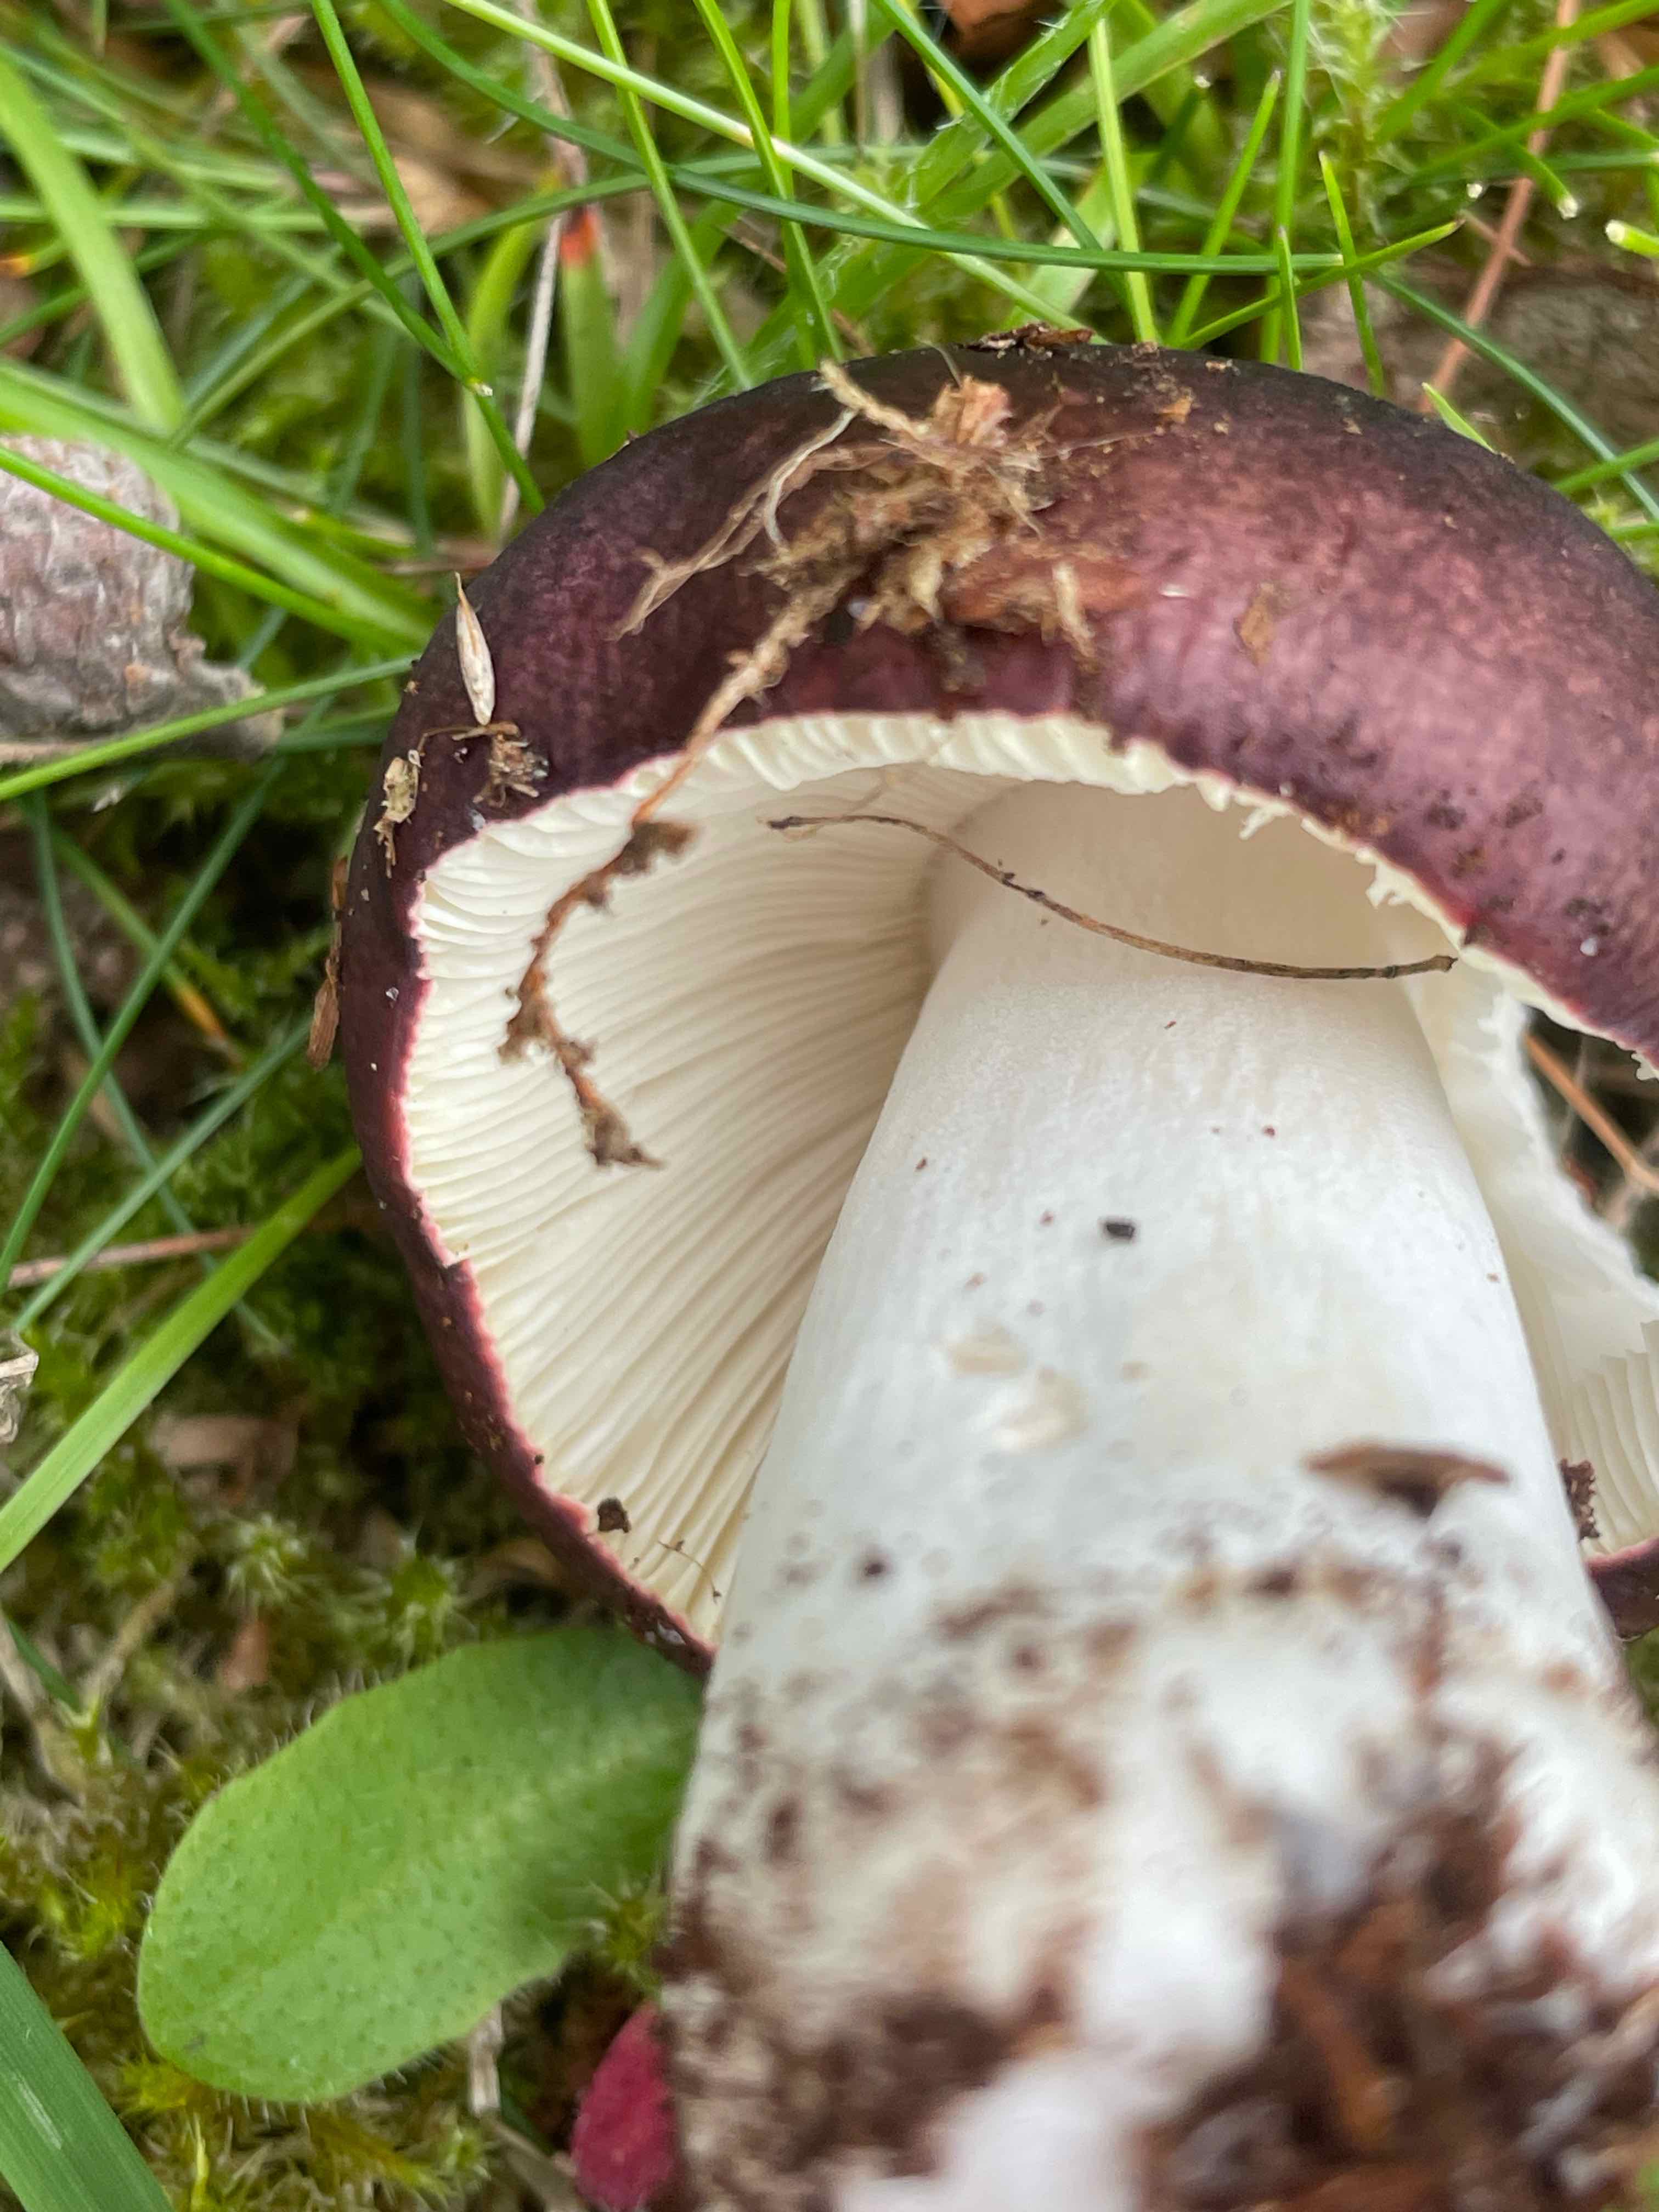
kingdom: Fungi
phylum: Basidiomycota
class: Agaricomycetes
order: Russulales
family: Russulaceae
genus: Russula
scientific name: Russula
